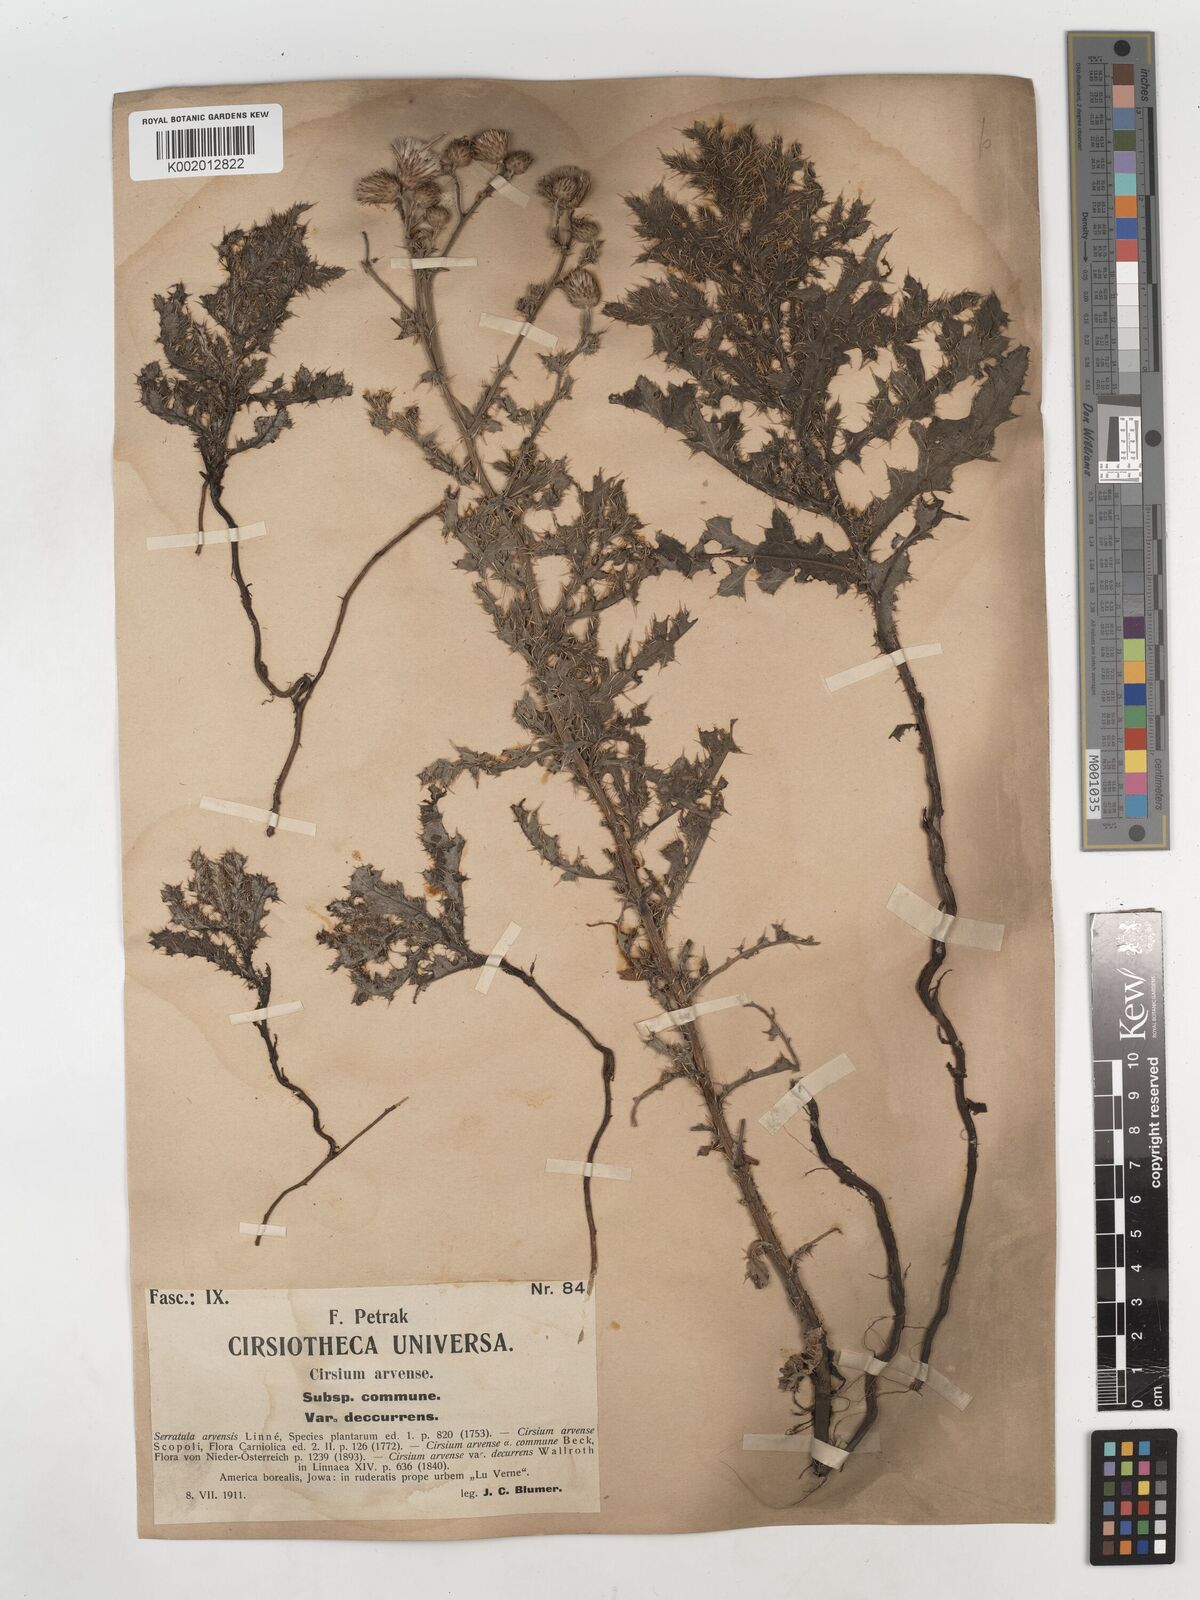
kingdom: Plantae
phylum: Tracheophyta
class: Magnoliopsida
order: Asterales
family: Asteraceae
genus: Cirsium
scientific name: Cirsium vulgare
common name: Bull thistle
